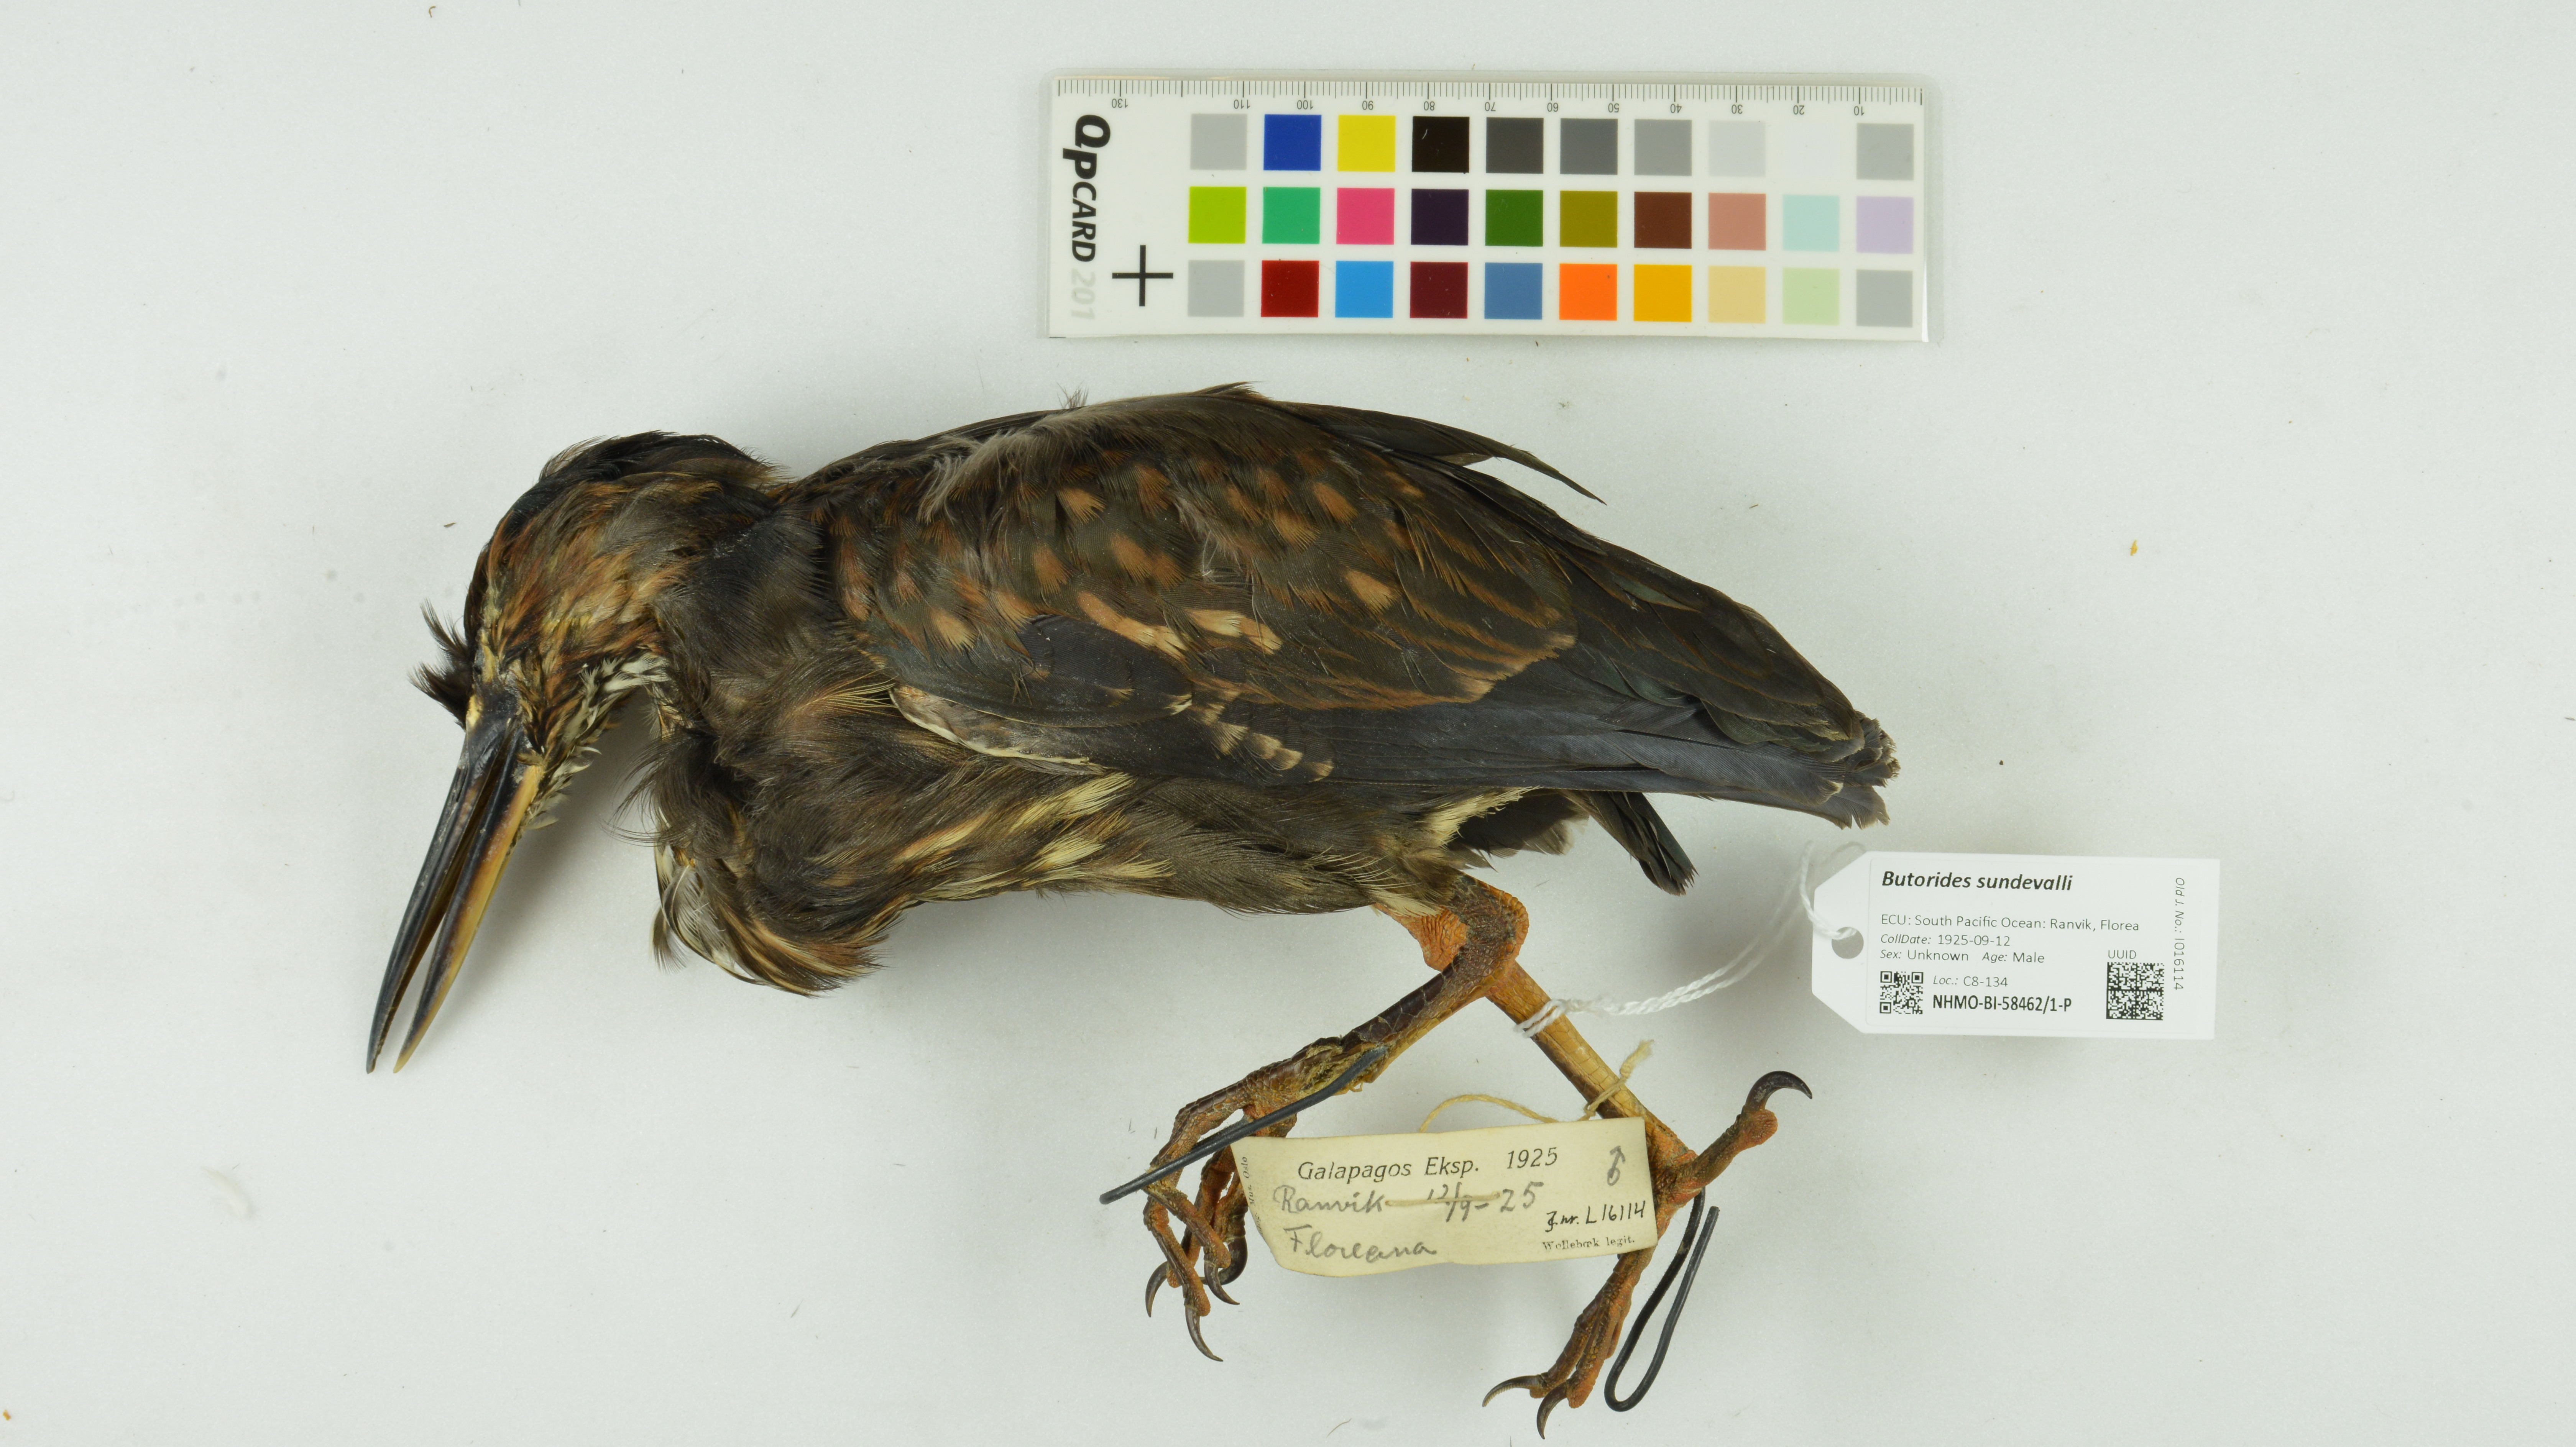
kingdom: Animalia
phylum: Chordata
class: Aves
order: Pelecaniformes
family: Ardeidae
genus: Butorides
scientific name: Butorides sundevalli
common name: Lava heron
